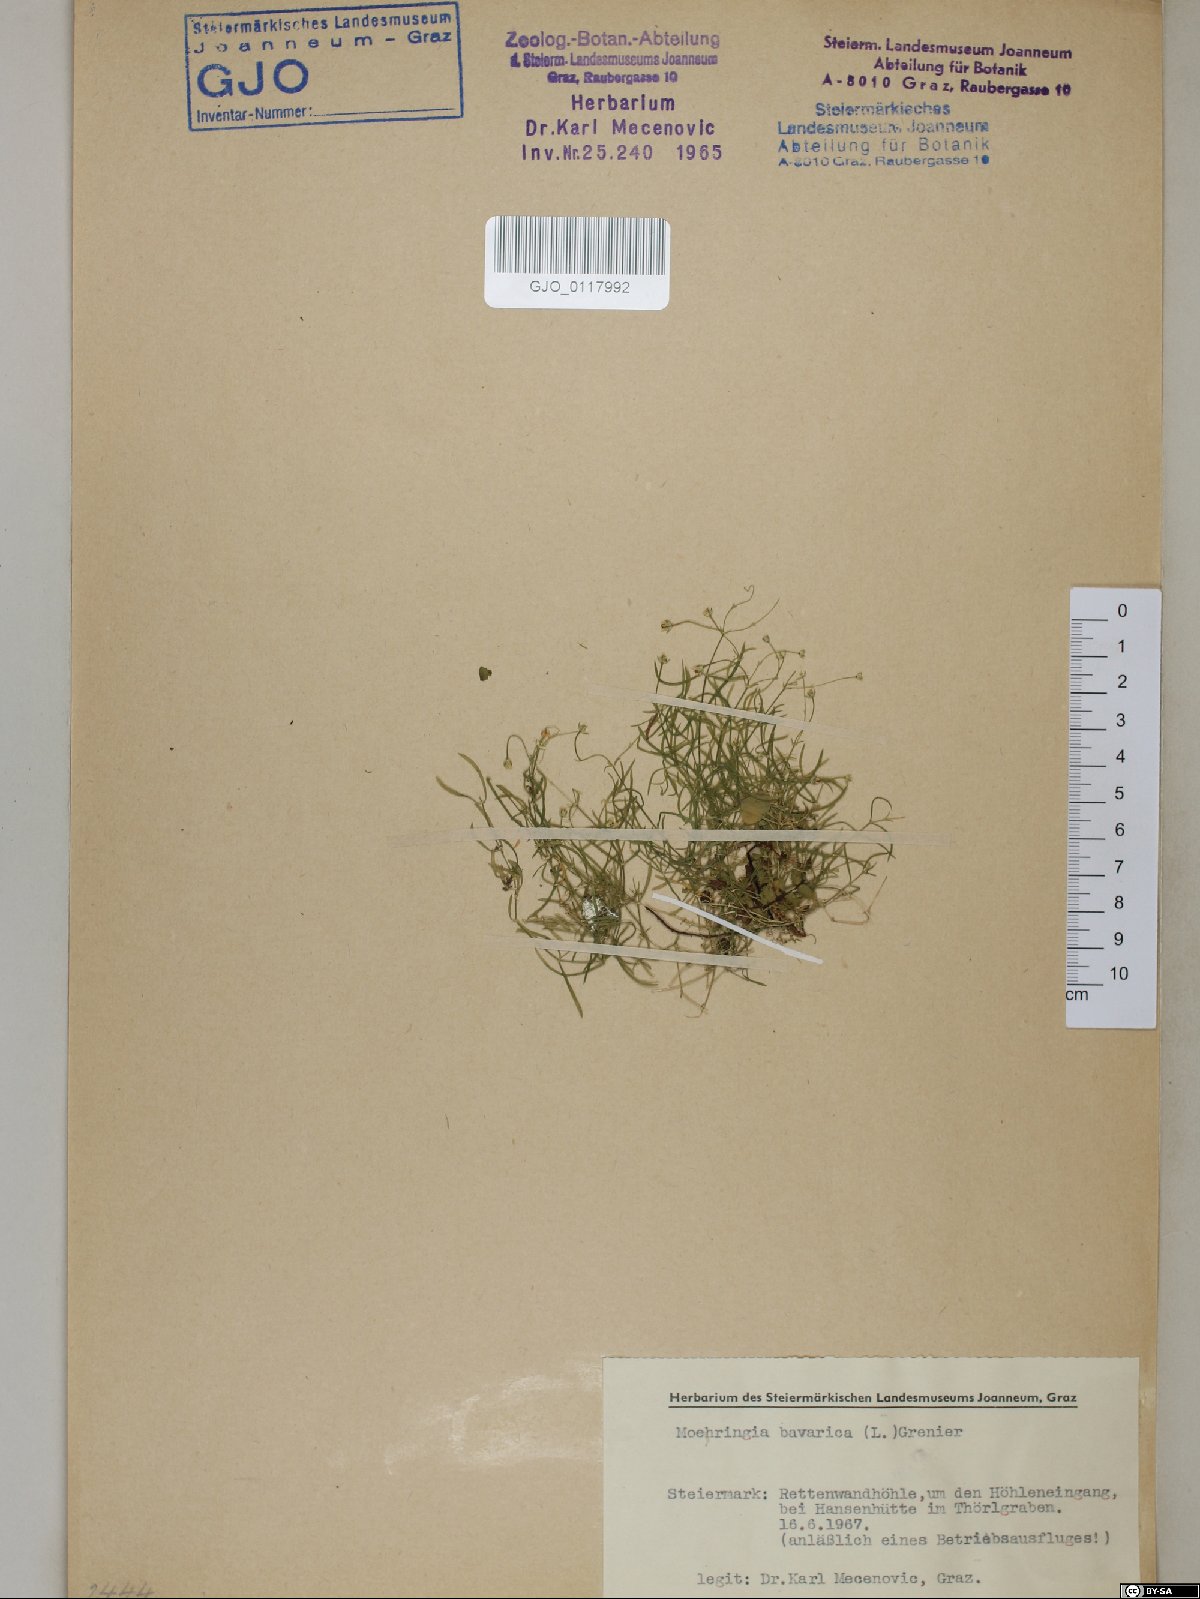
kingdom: Plantae
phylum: Tracheophyta
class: Magnoliopsida
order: Caryophyllales
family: Caryophyllaceae
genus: Moehringia
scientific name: Moehringia bavarica
